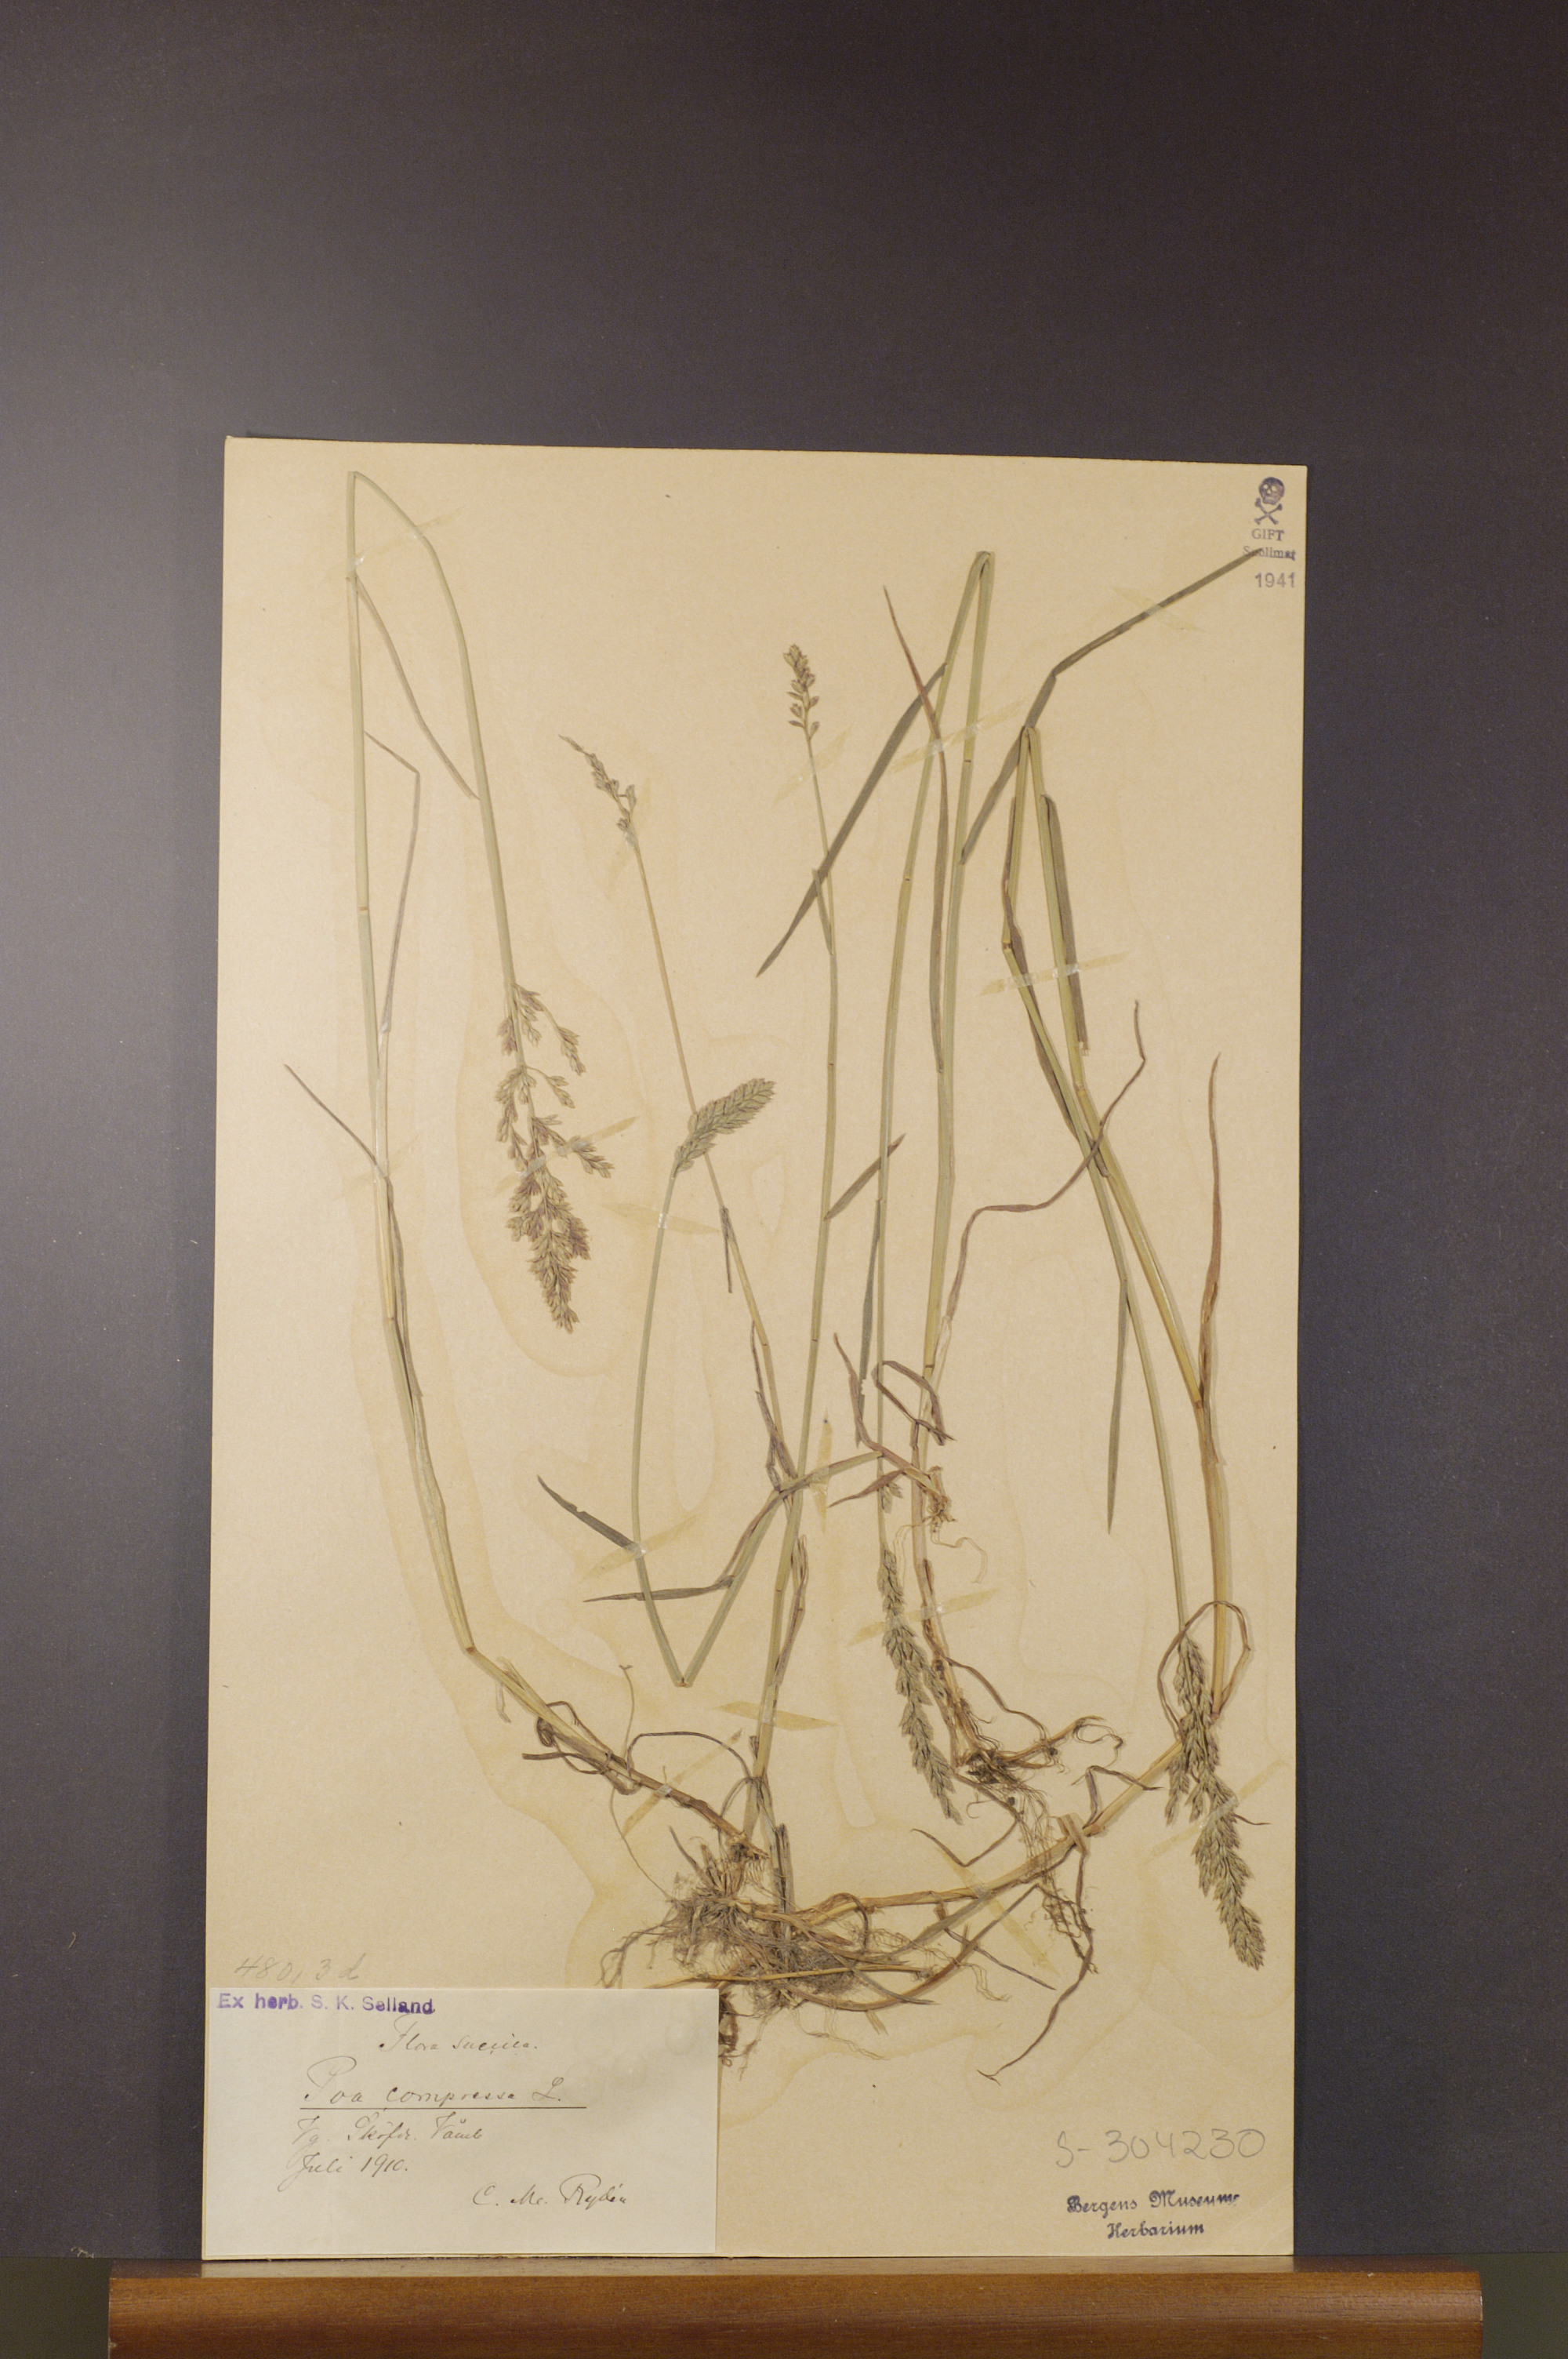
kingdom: Plantae
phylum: Tracheophyta
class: Liliopsida
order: Poales
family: Poaceae
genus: Poa
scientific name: Poa compressa
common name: Canada bluegrass
